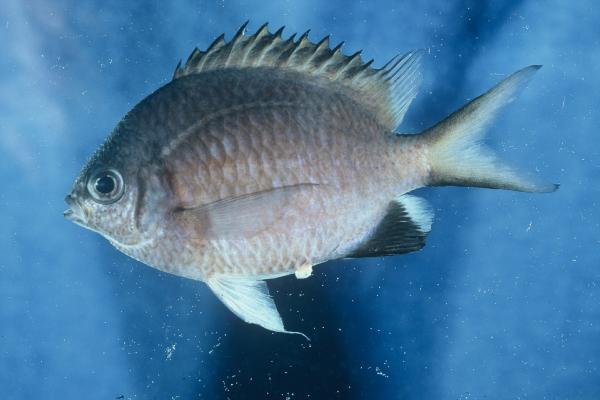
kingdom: Animalia
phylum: Chordata
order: Perciformes
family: Pomacentridae
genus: Chromis
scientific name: Chromis nigroanalis
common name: Kenyan chromis
